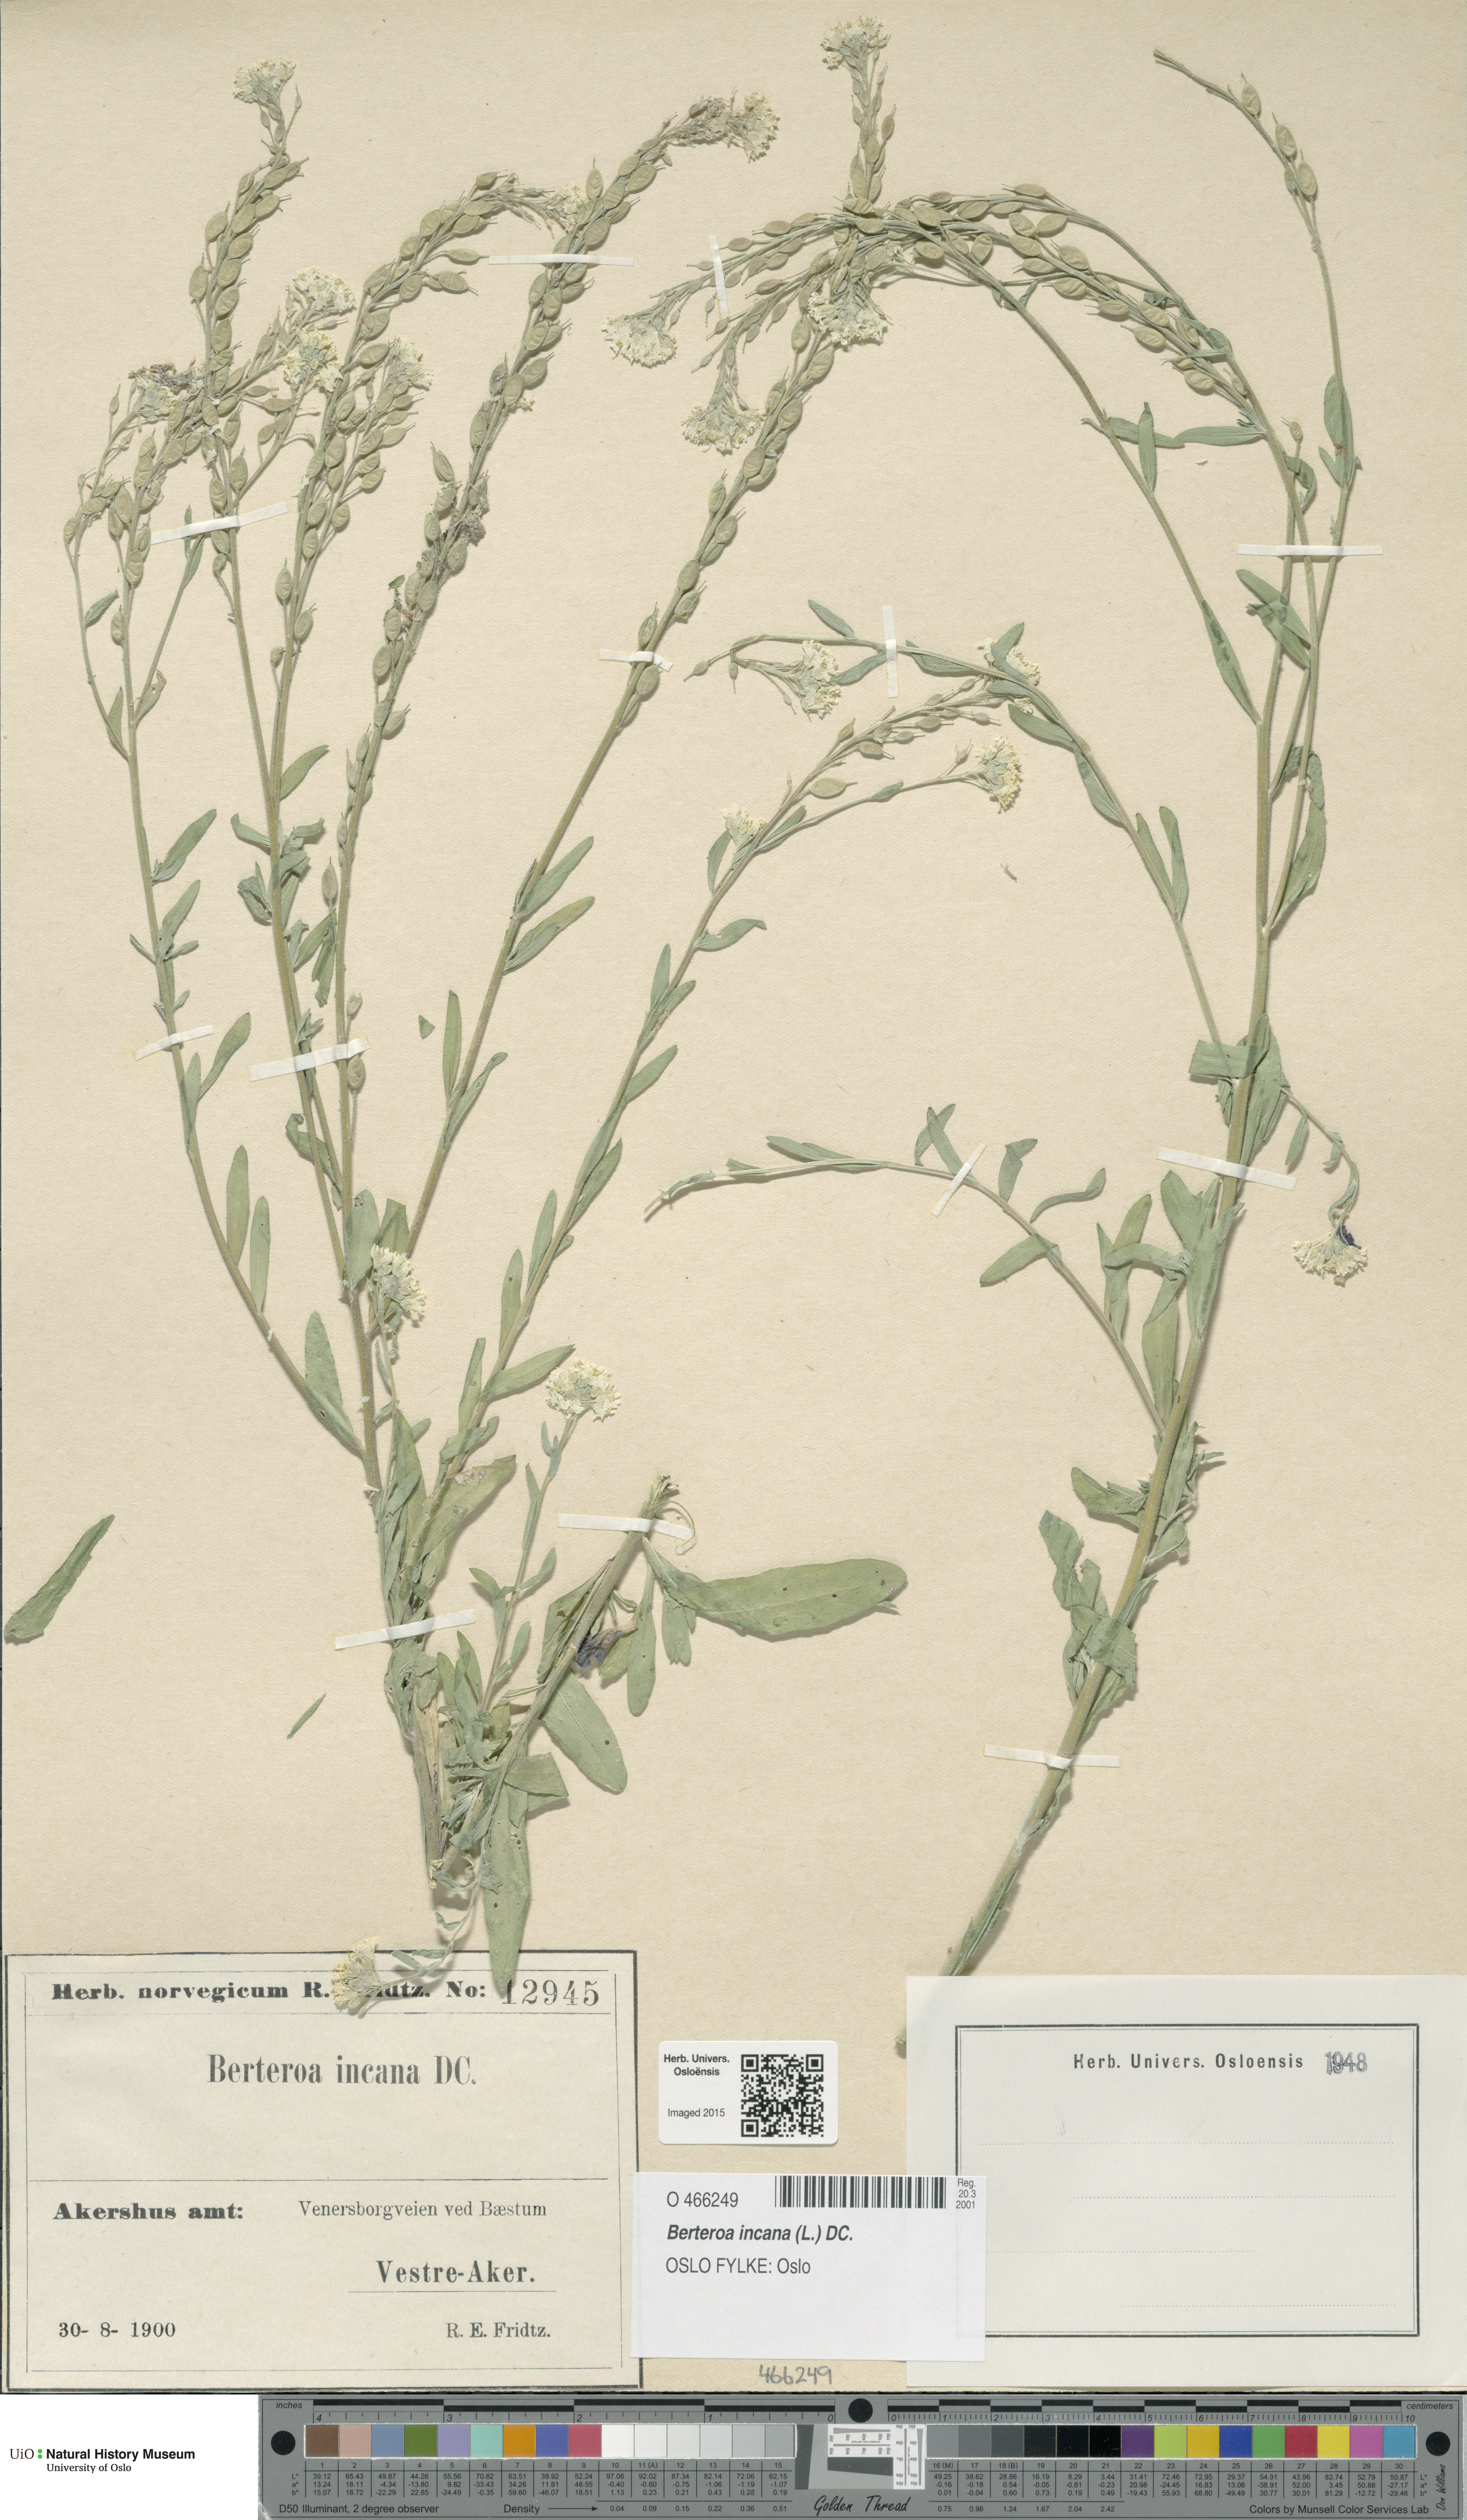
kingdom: Plantae
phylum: Tracheophyta
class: Magnoliopsida
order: Brassicales
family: Brassicaceae
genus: Berteroa
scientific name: Berteroa incana
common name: Hoary alison
